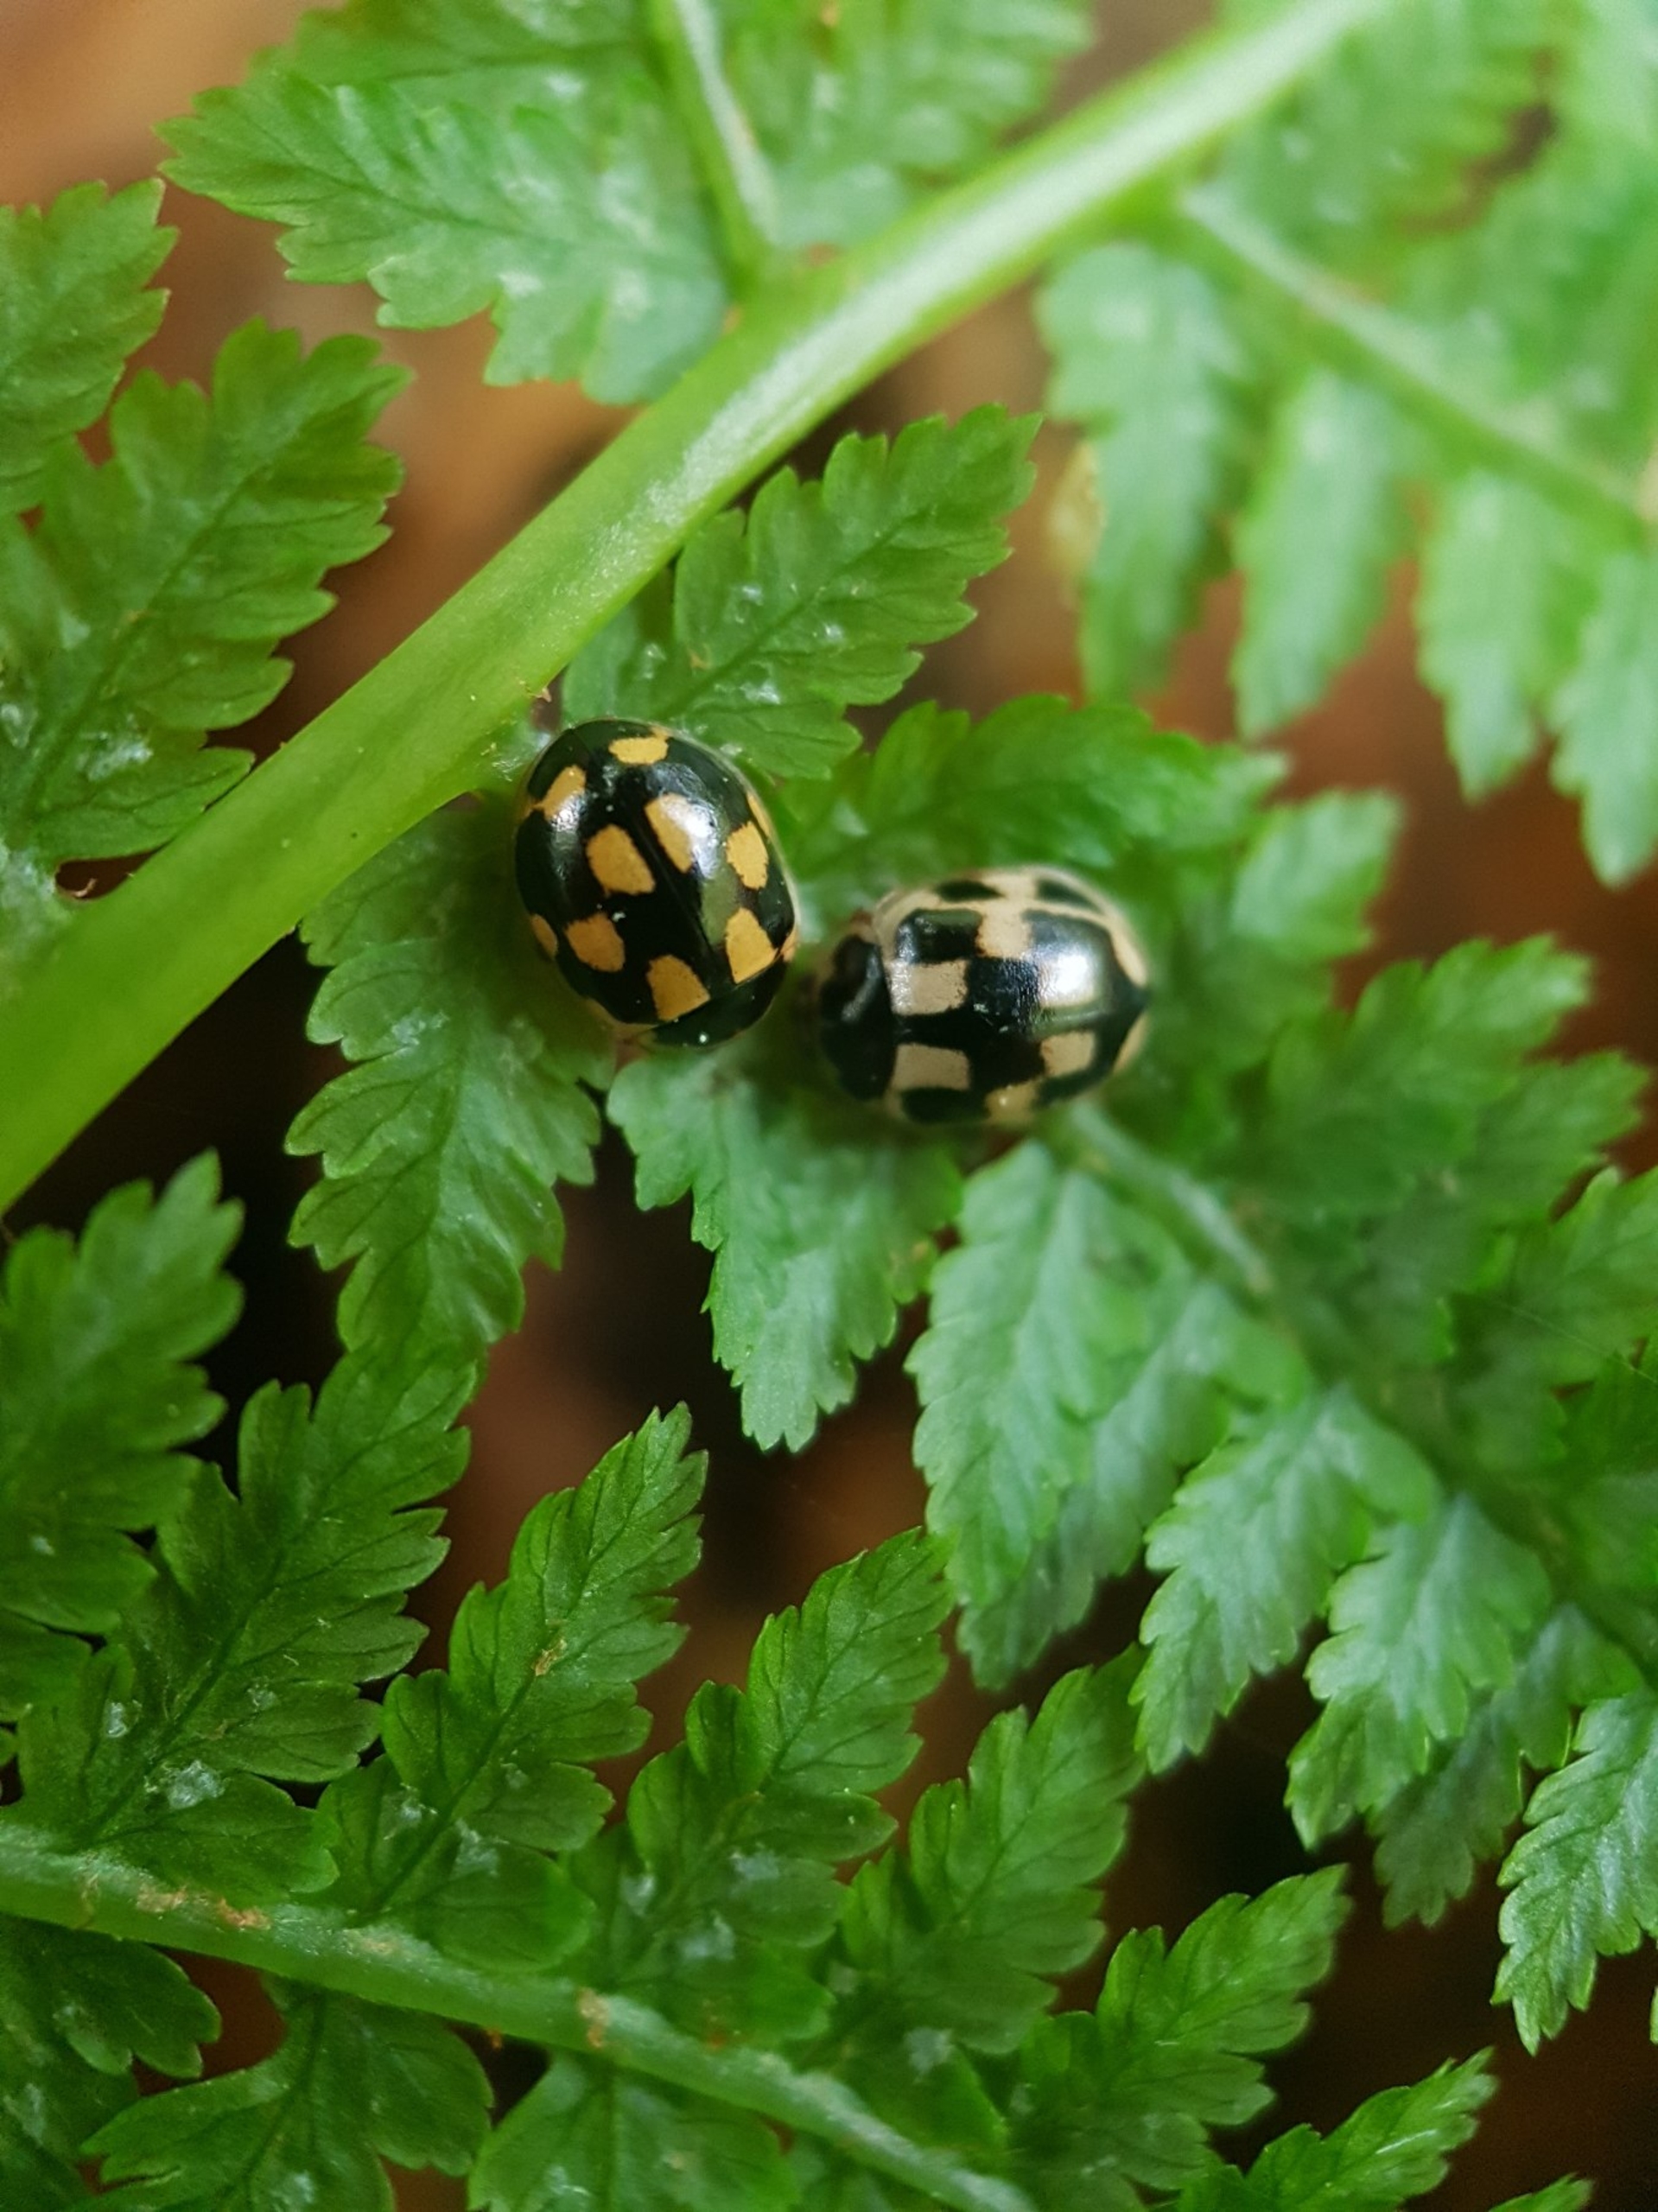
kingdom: Animalia
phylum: Arthropoda
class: Insecta
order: Coleoptera
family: Coccinellidae
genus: Propylaea
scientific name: Propylaea quatuordecimpunctata
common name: Skakbræt
